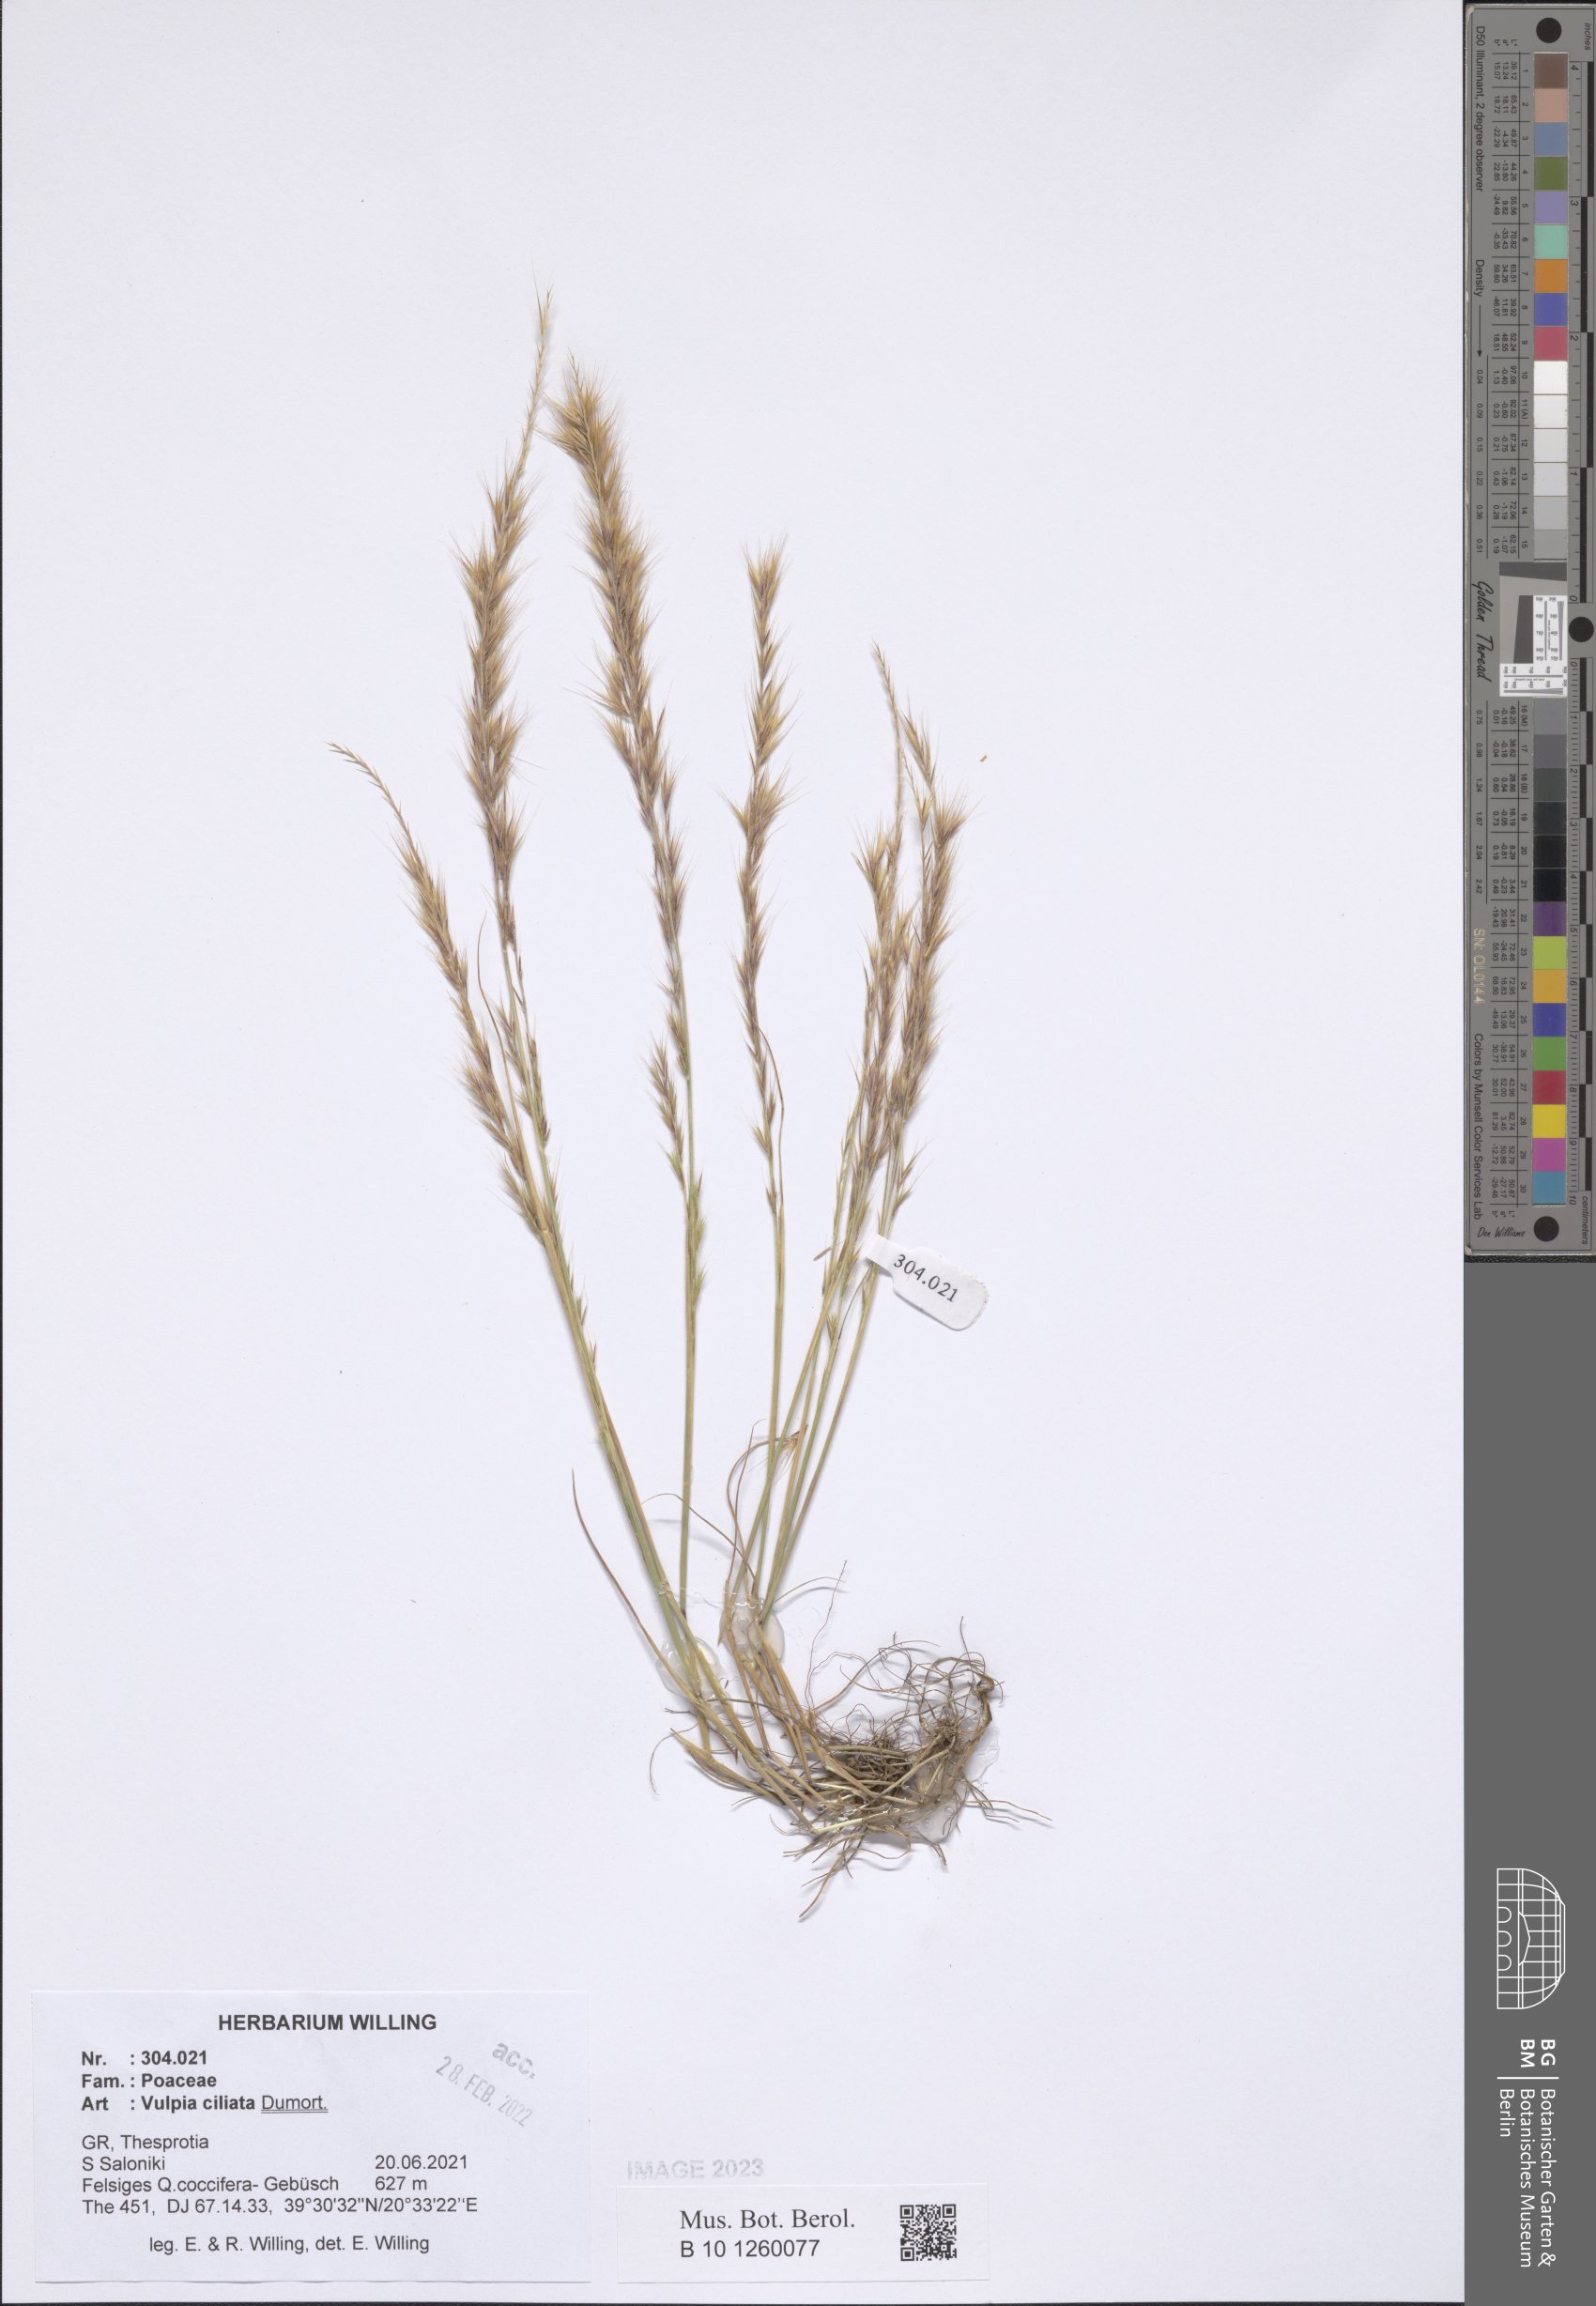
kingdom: Plantae
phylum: Tracheophyta
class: Liliopsida
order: Poales
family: Poaceae
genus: Festuca
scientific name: Festuca ambigua
